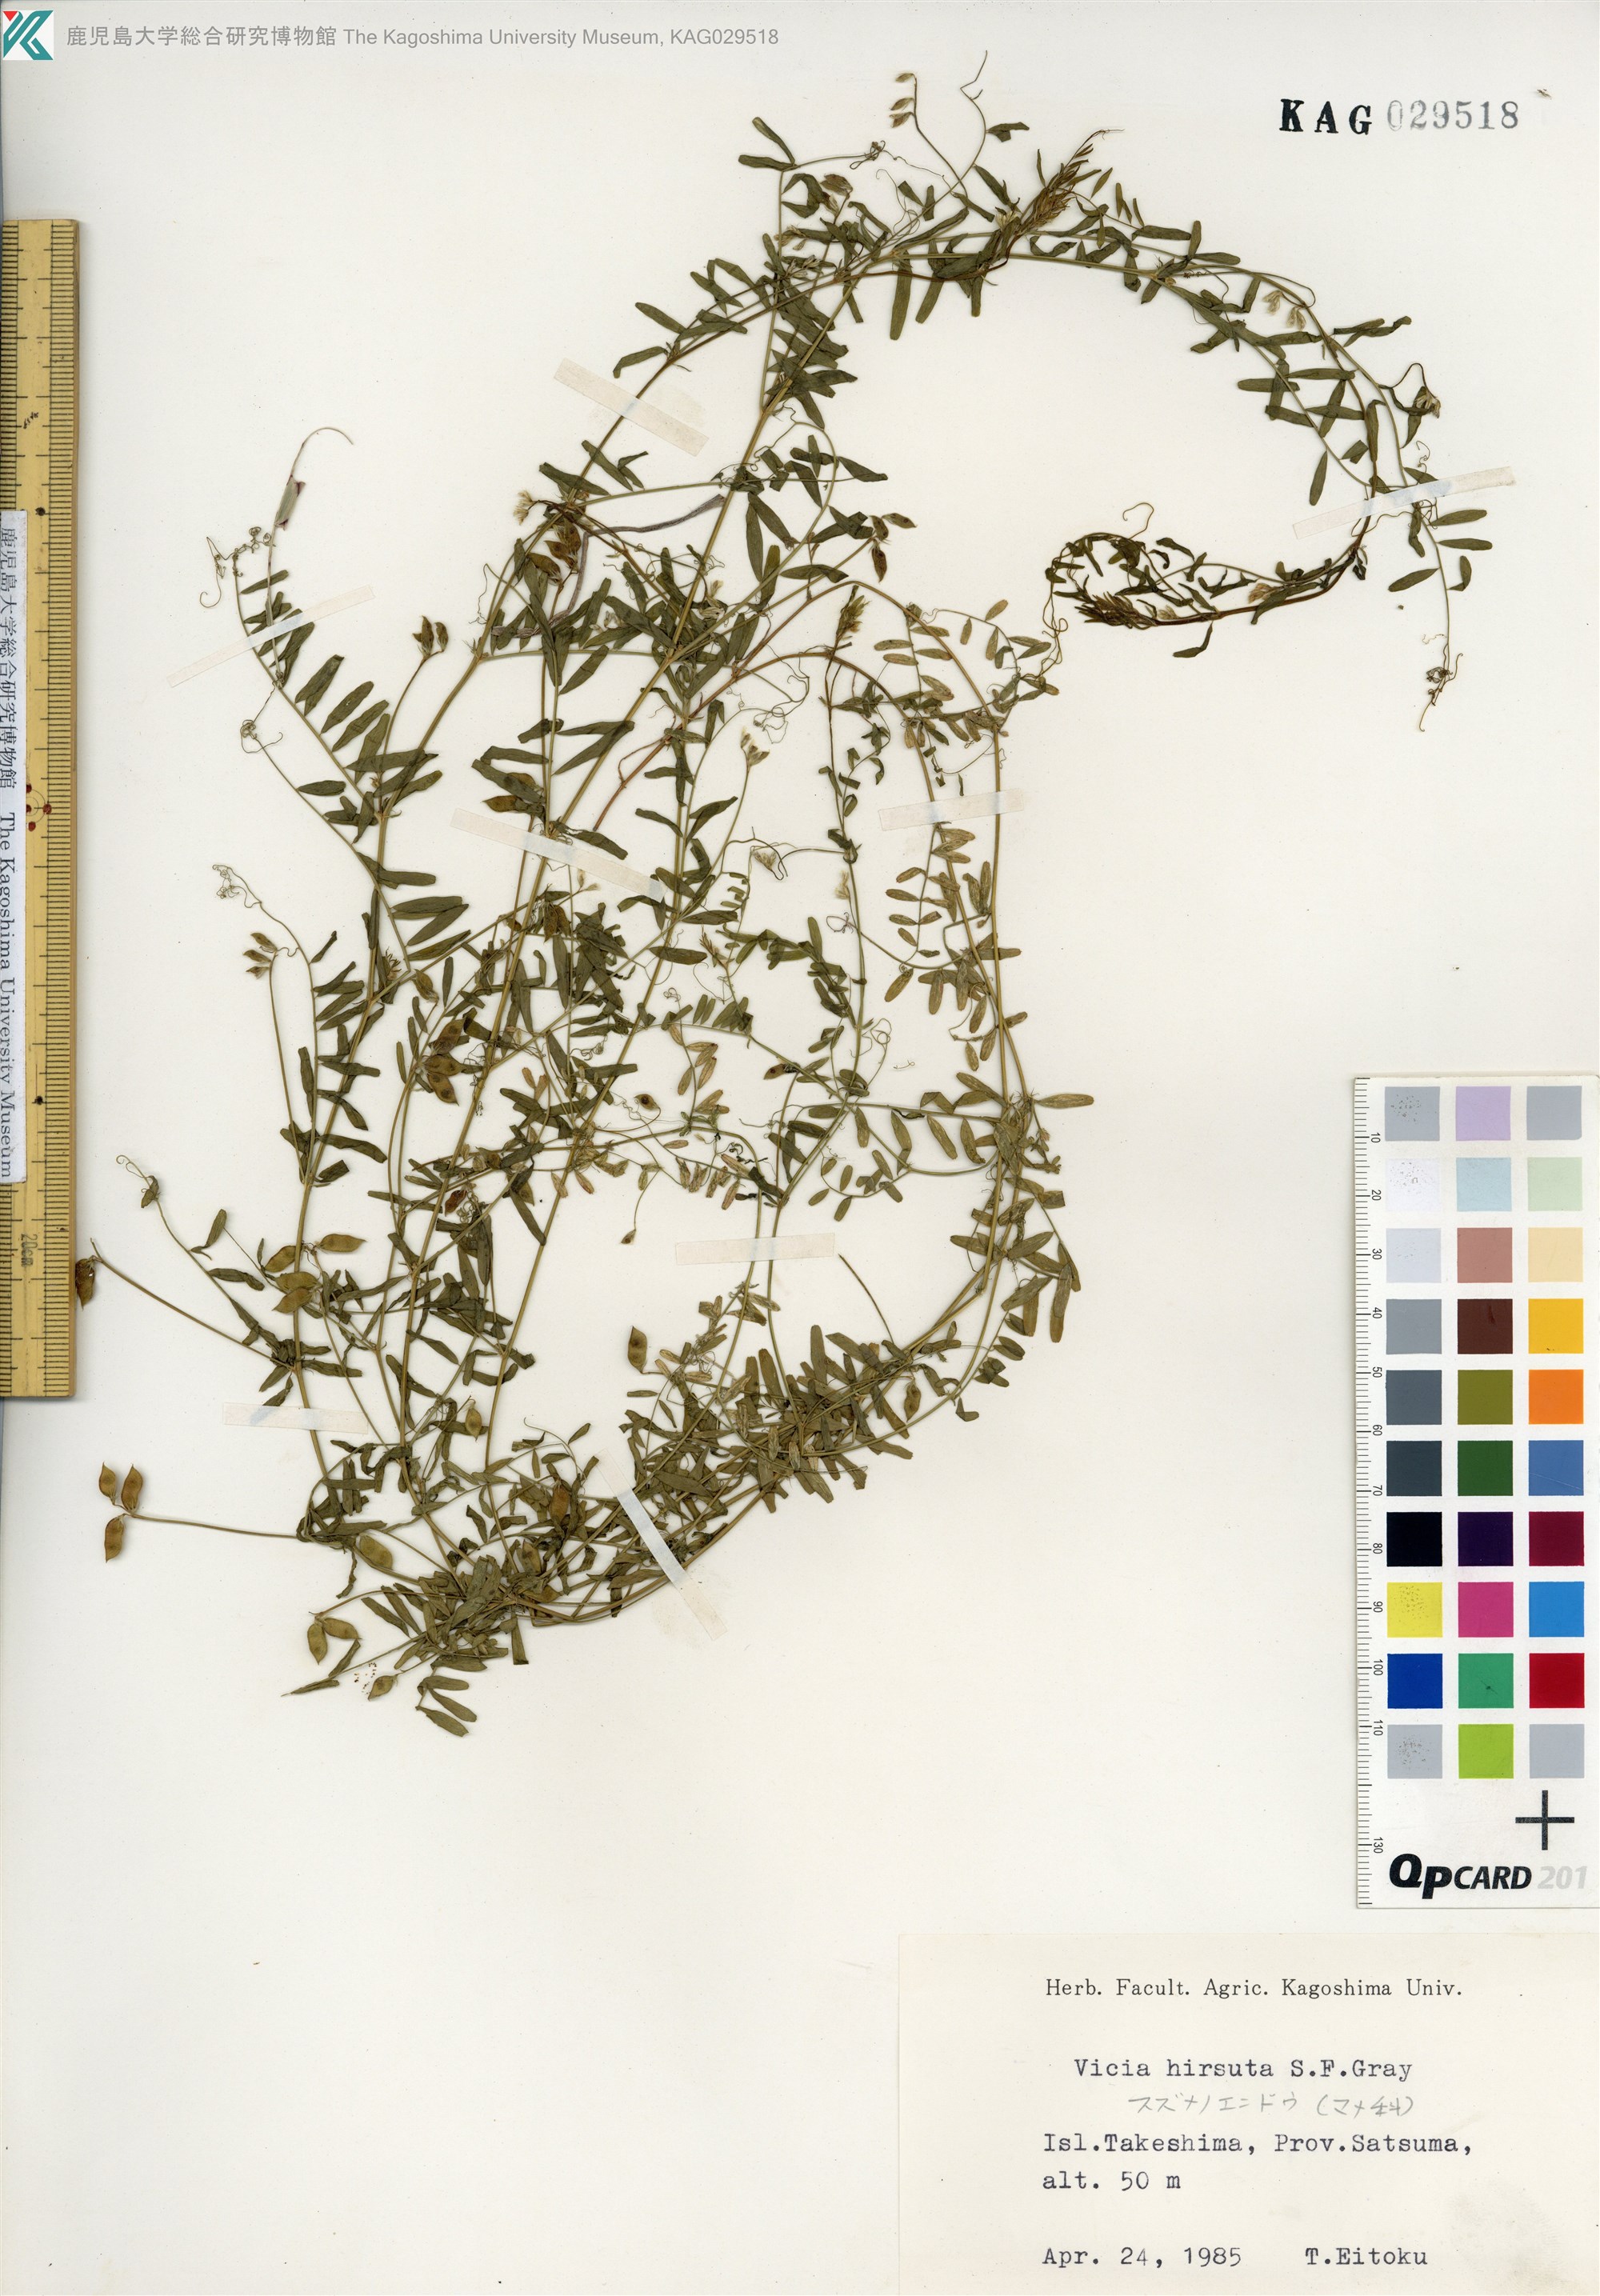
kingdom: Plantae
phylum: Tracheophyta
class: Magnoliopsida
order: Fabales
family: Fabaceae
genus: Vicia
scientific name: Vicia hirsuta
